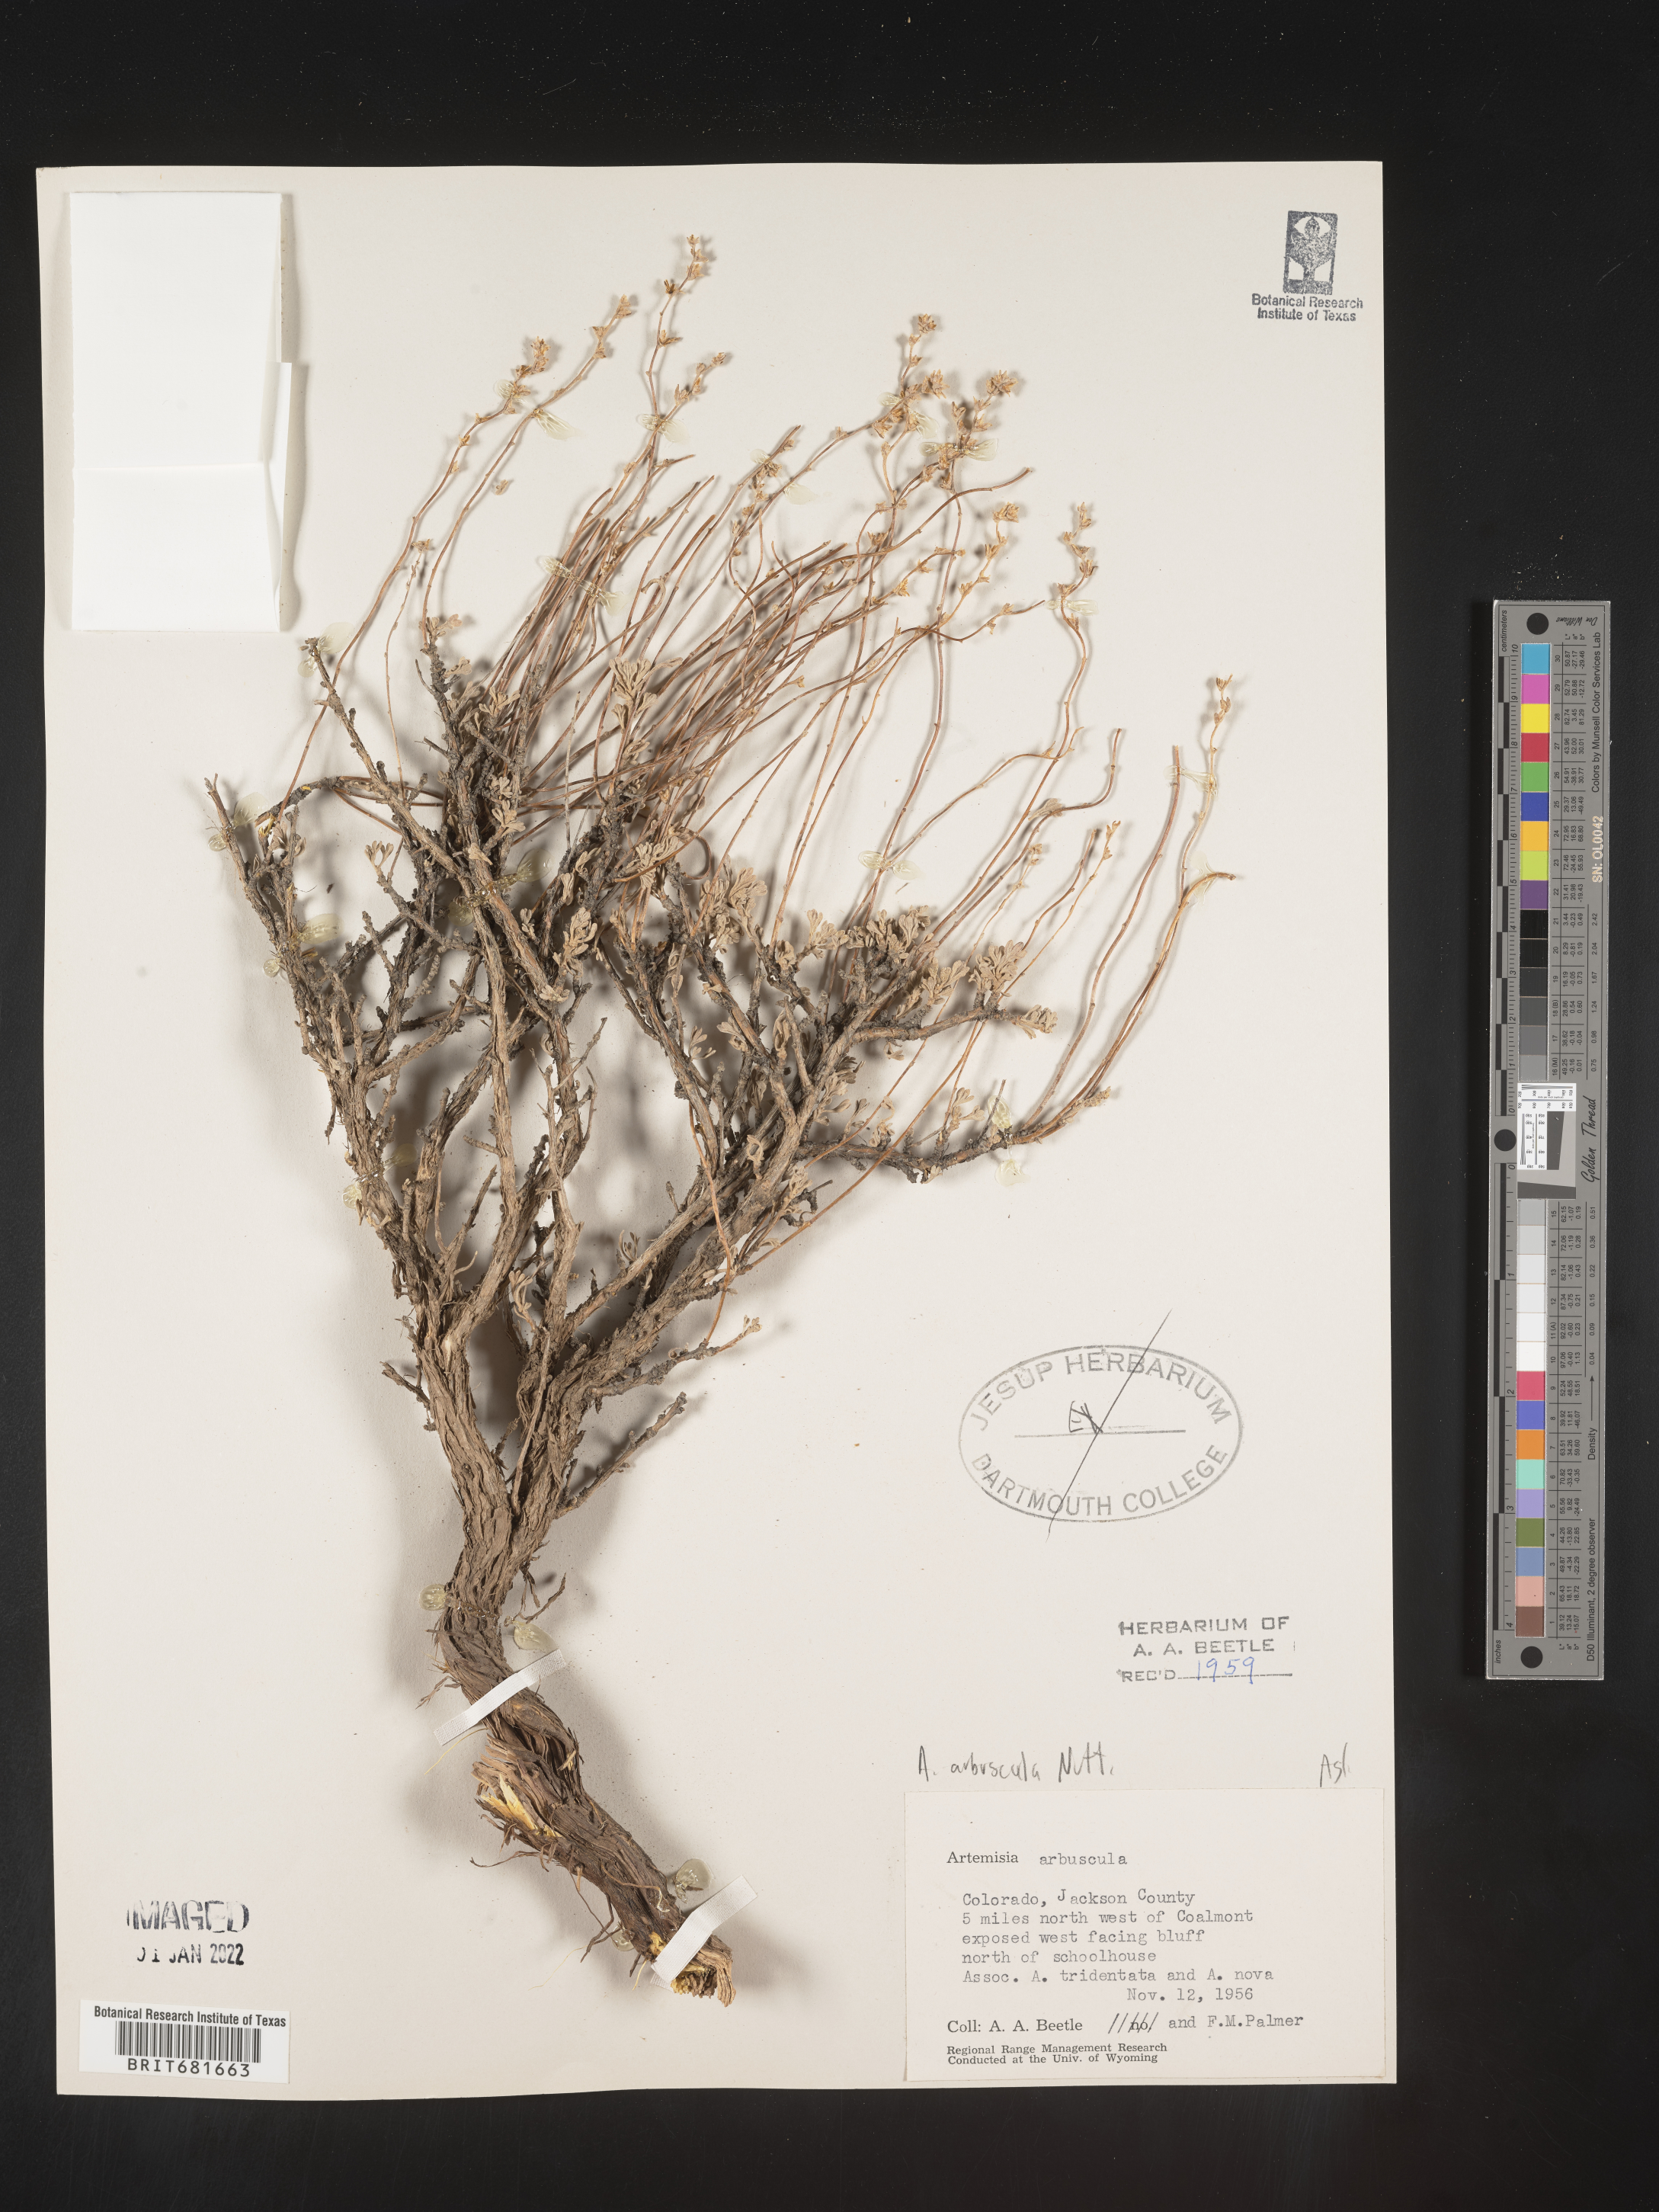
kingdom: Plantae
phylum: Tracheophyta
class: Magnoliopsida
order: Asterales
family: Asteraceae
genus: Artemisia
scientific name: Artemisia arbuscula
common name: Sagebrush
